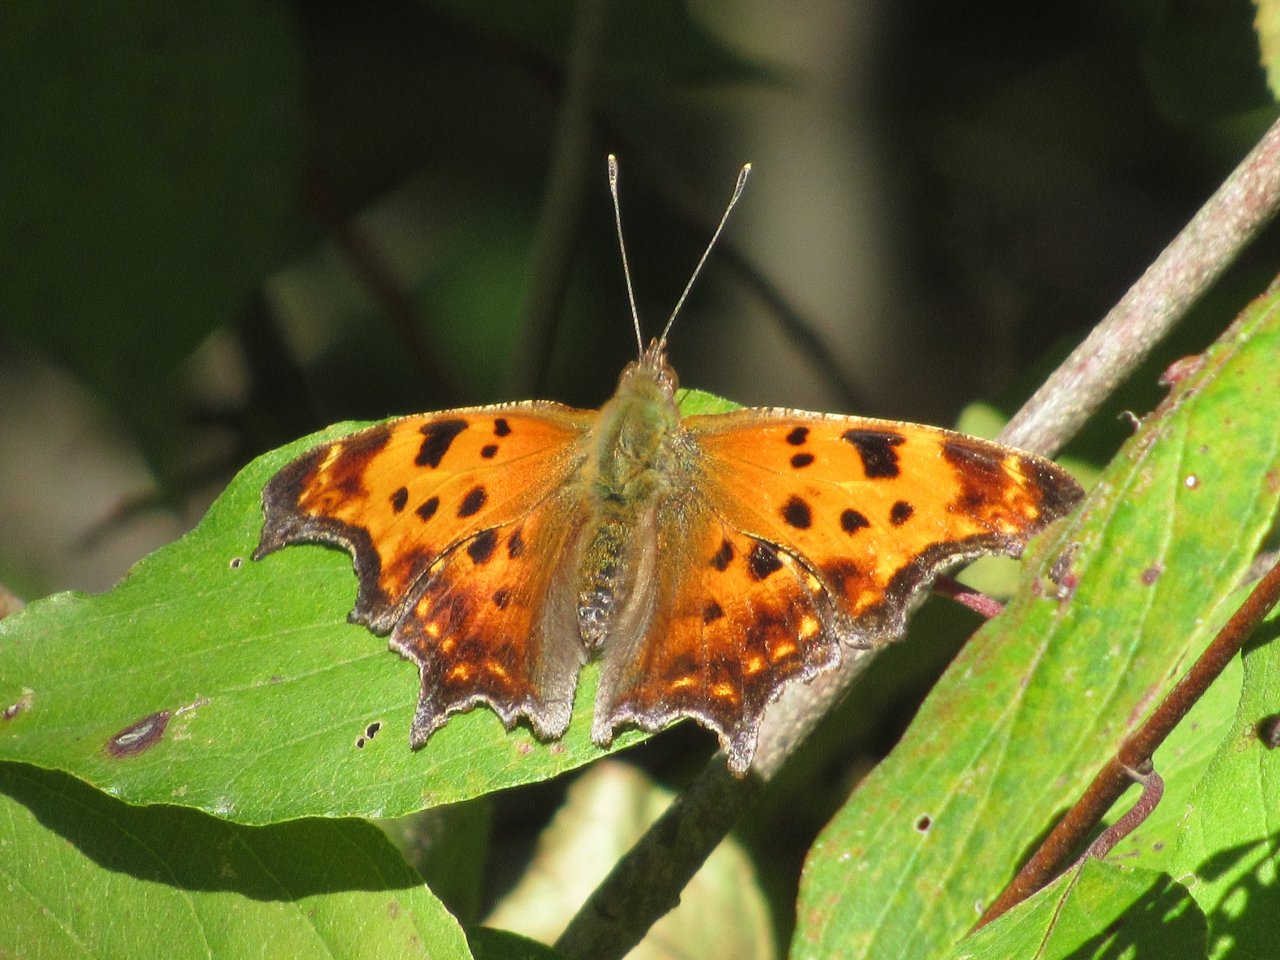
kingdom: Animalia
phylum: Arthropoda
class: Insecta
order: Lepidoptera
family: Nymphalidae
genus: Polygonia
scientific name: Polygonia comma
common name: Eastern Comma
